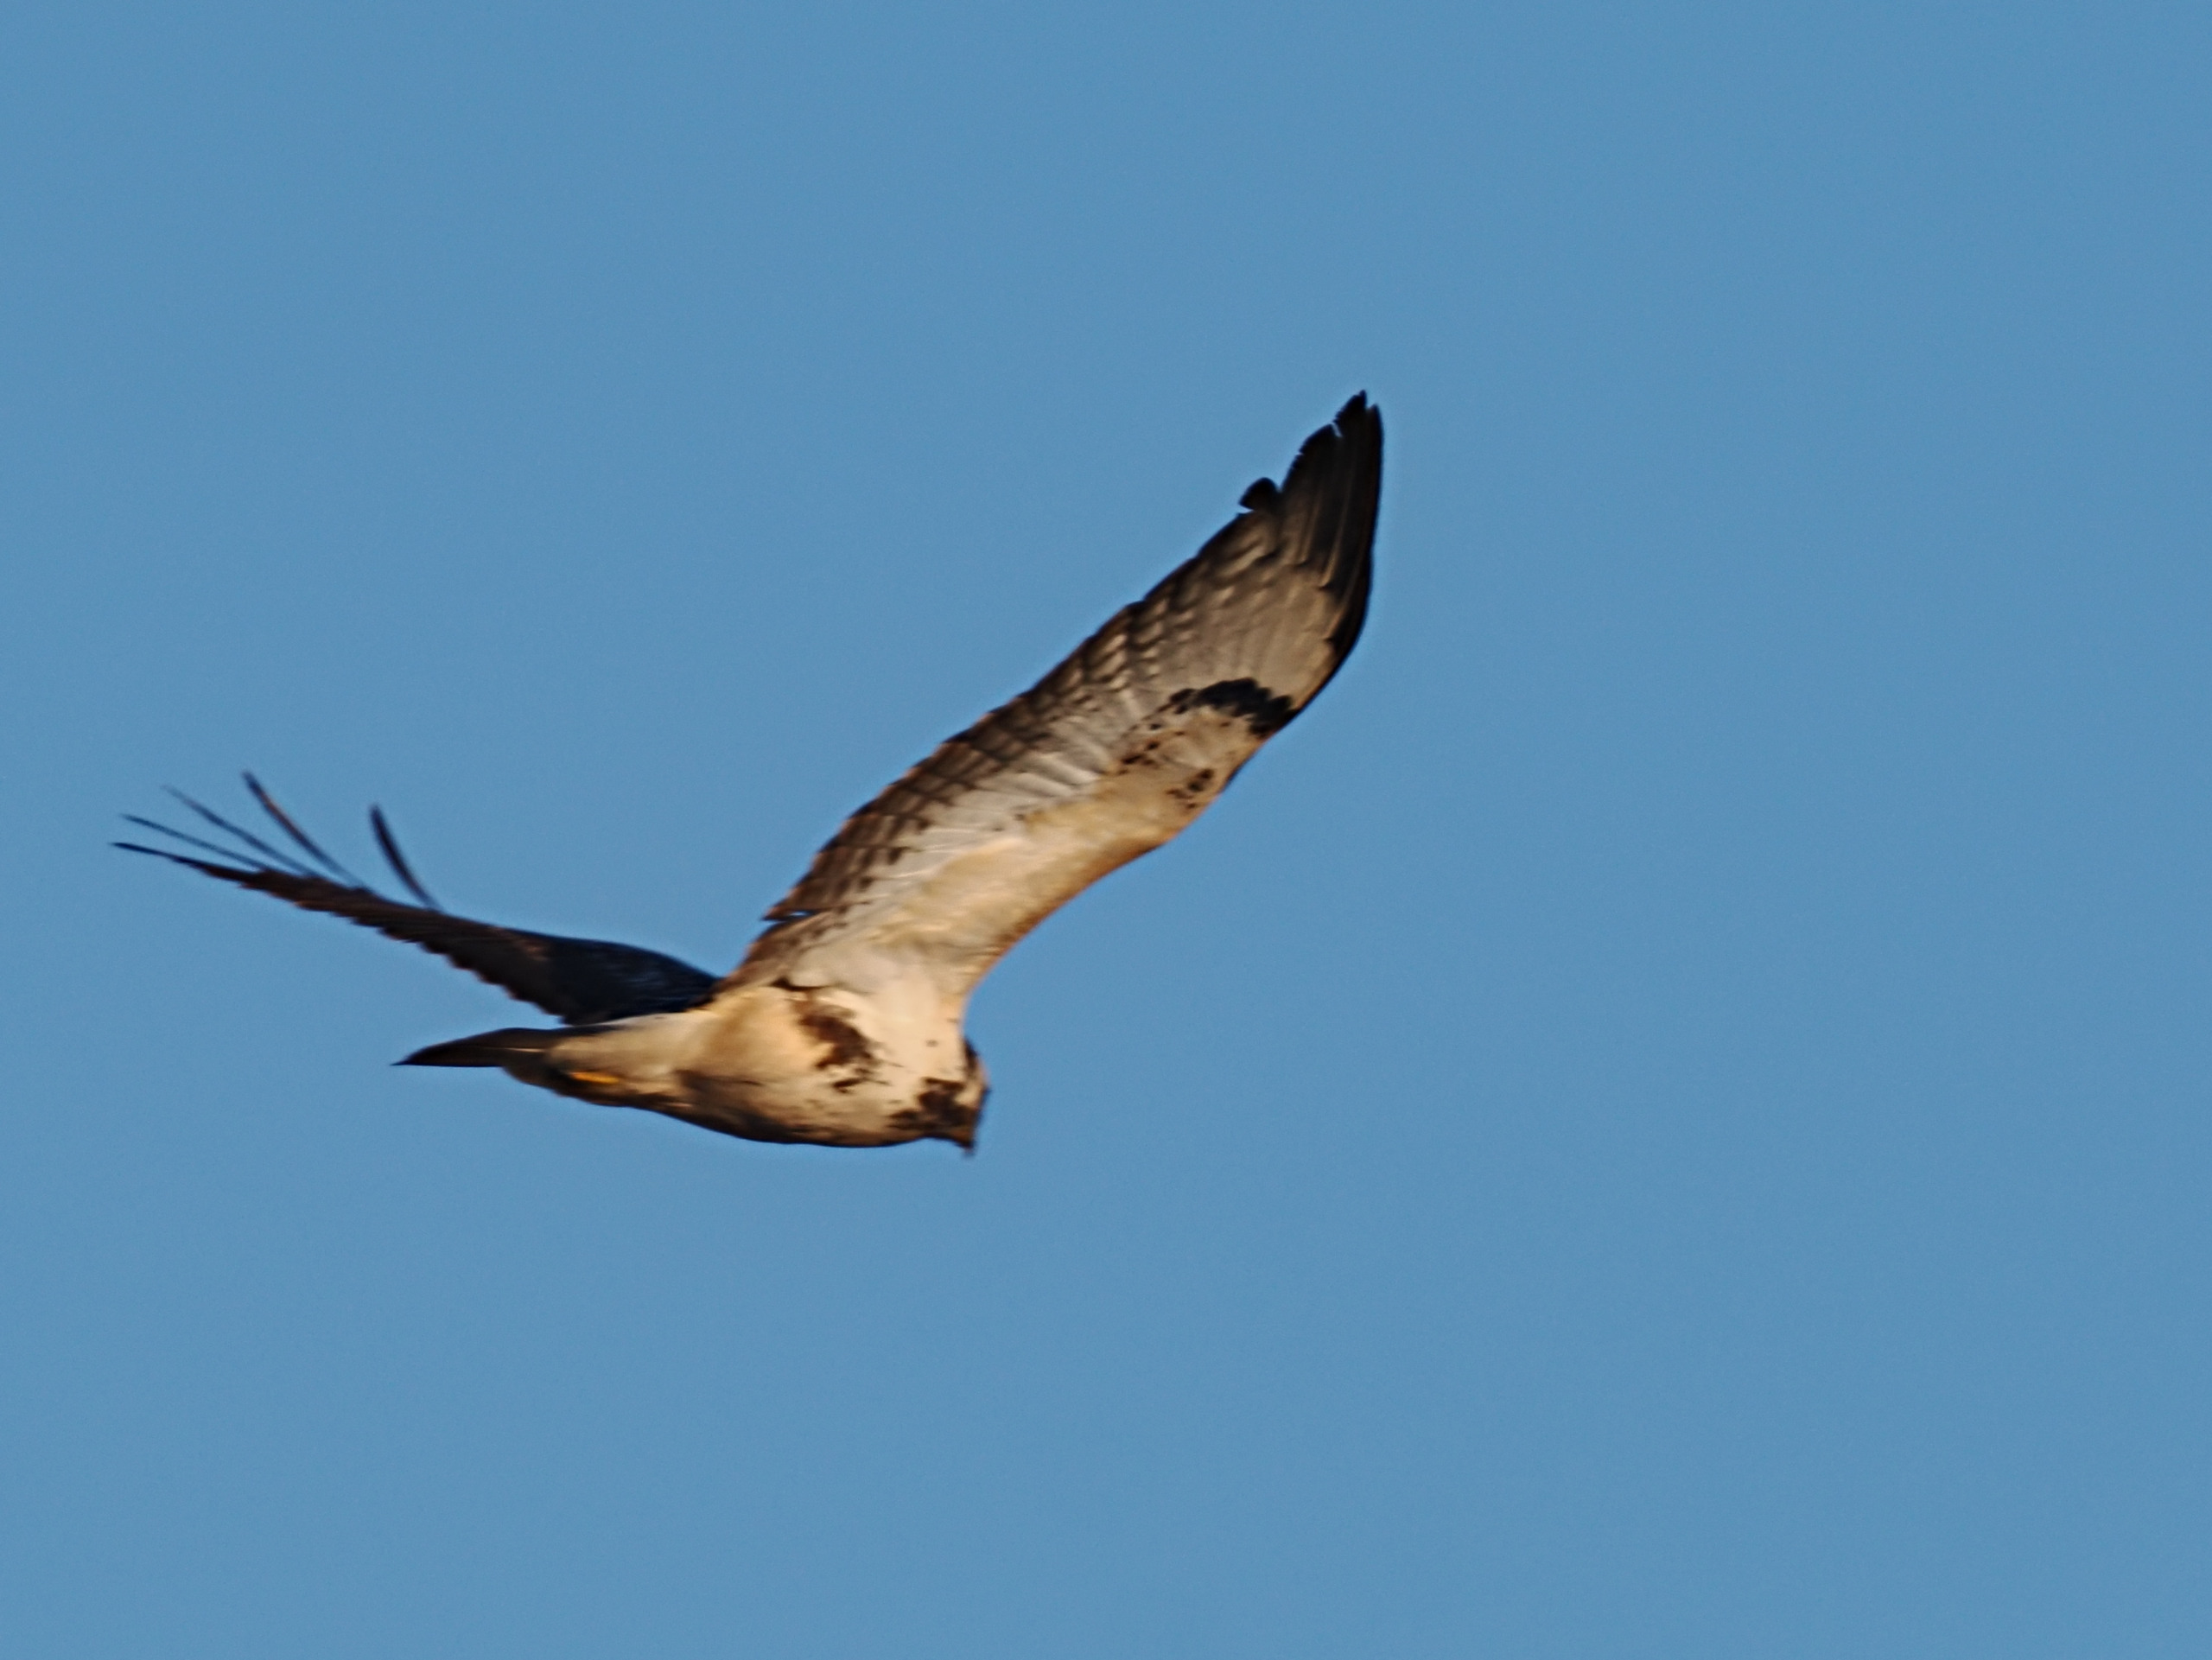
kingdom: Animalia
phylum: Chordata
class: Aves
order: Accipitriformes
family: Accipitridae
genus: Buteo
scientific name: Buteo buteo
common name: Musvåge
